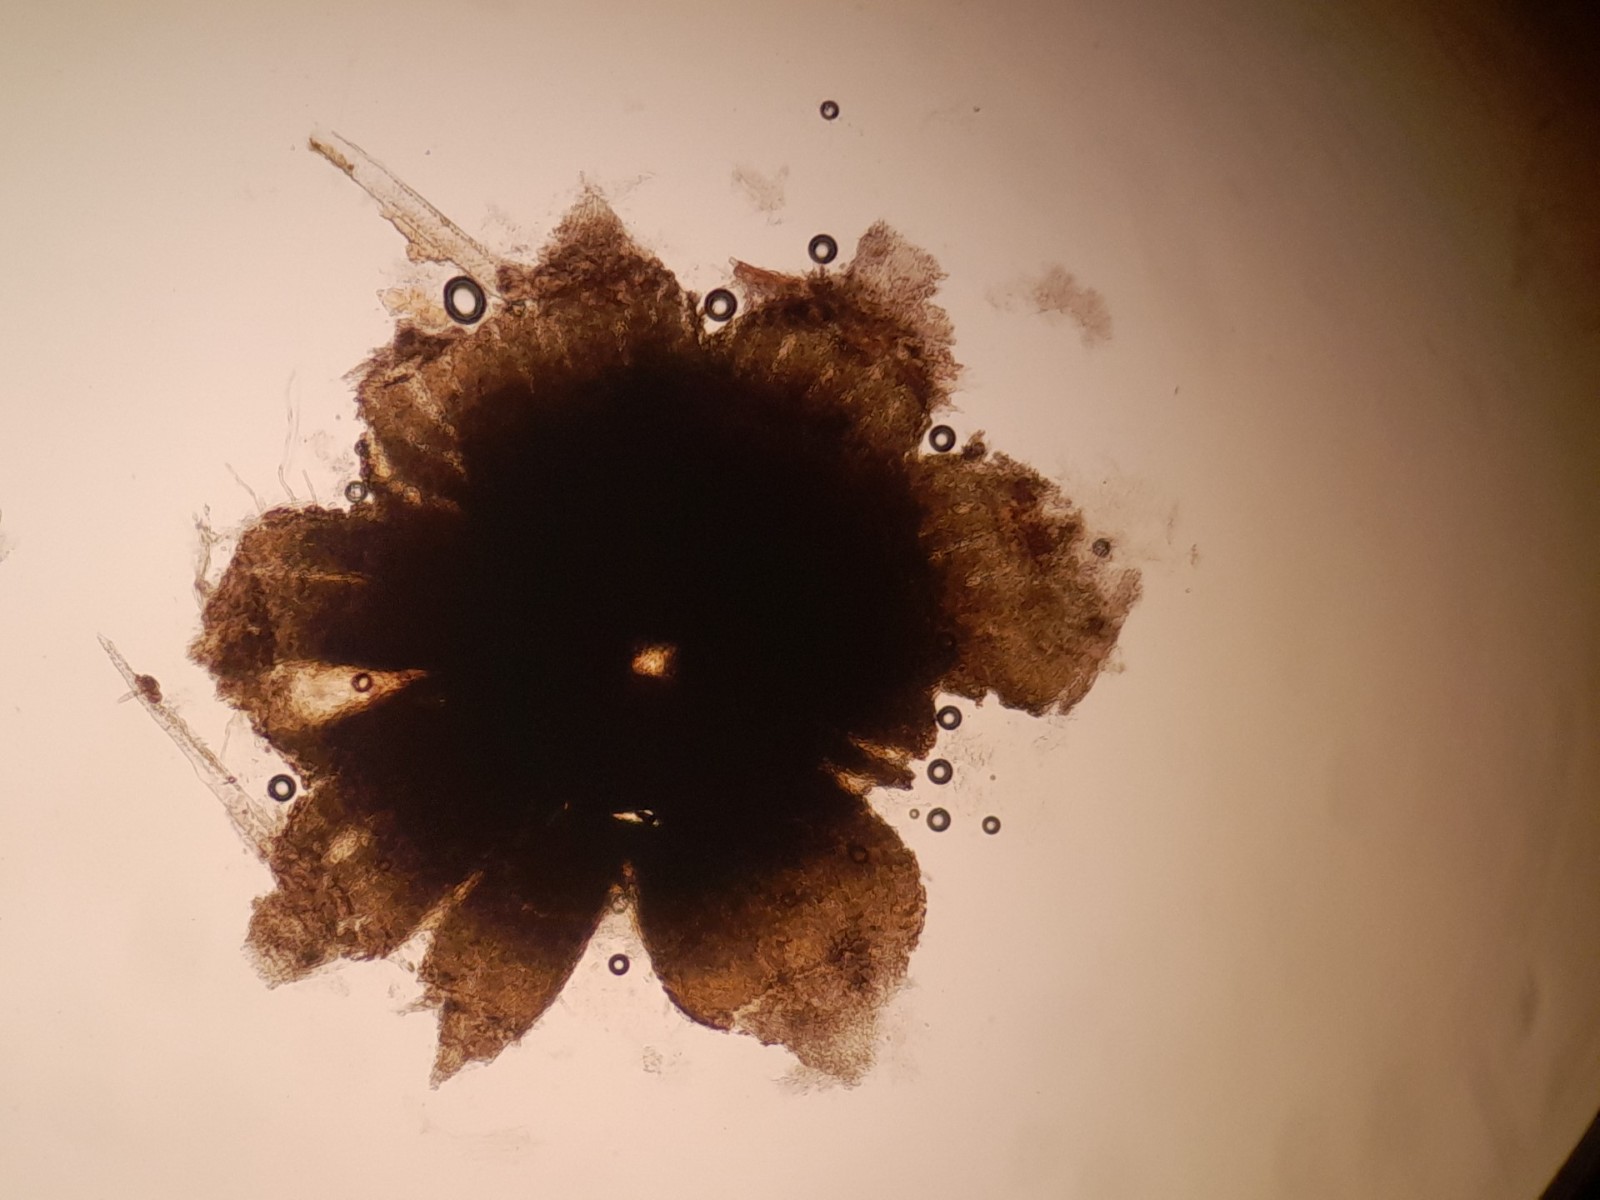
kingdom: Fungi
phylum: Ascomycota
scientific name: Ascomycota
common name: sæksvampe
